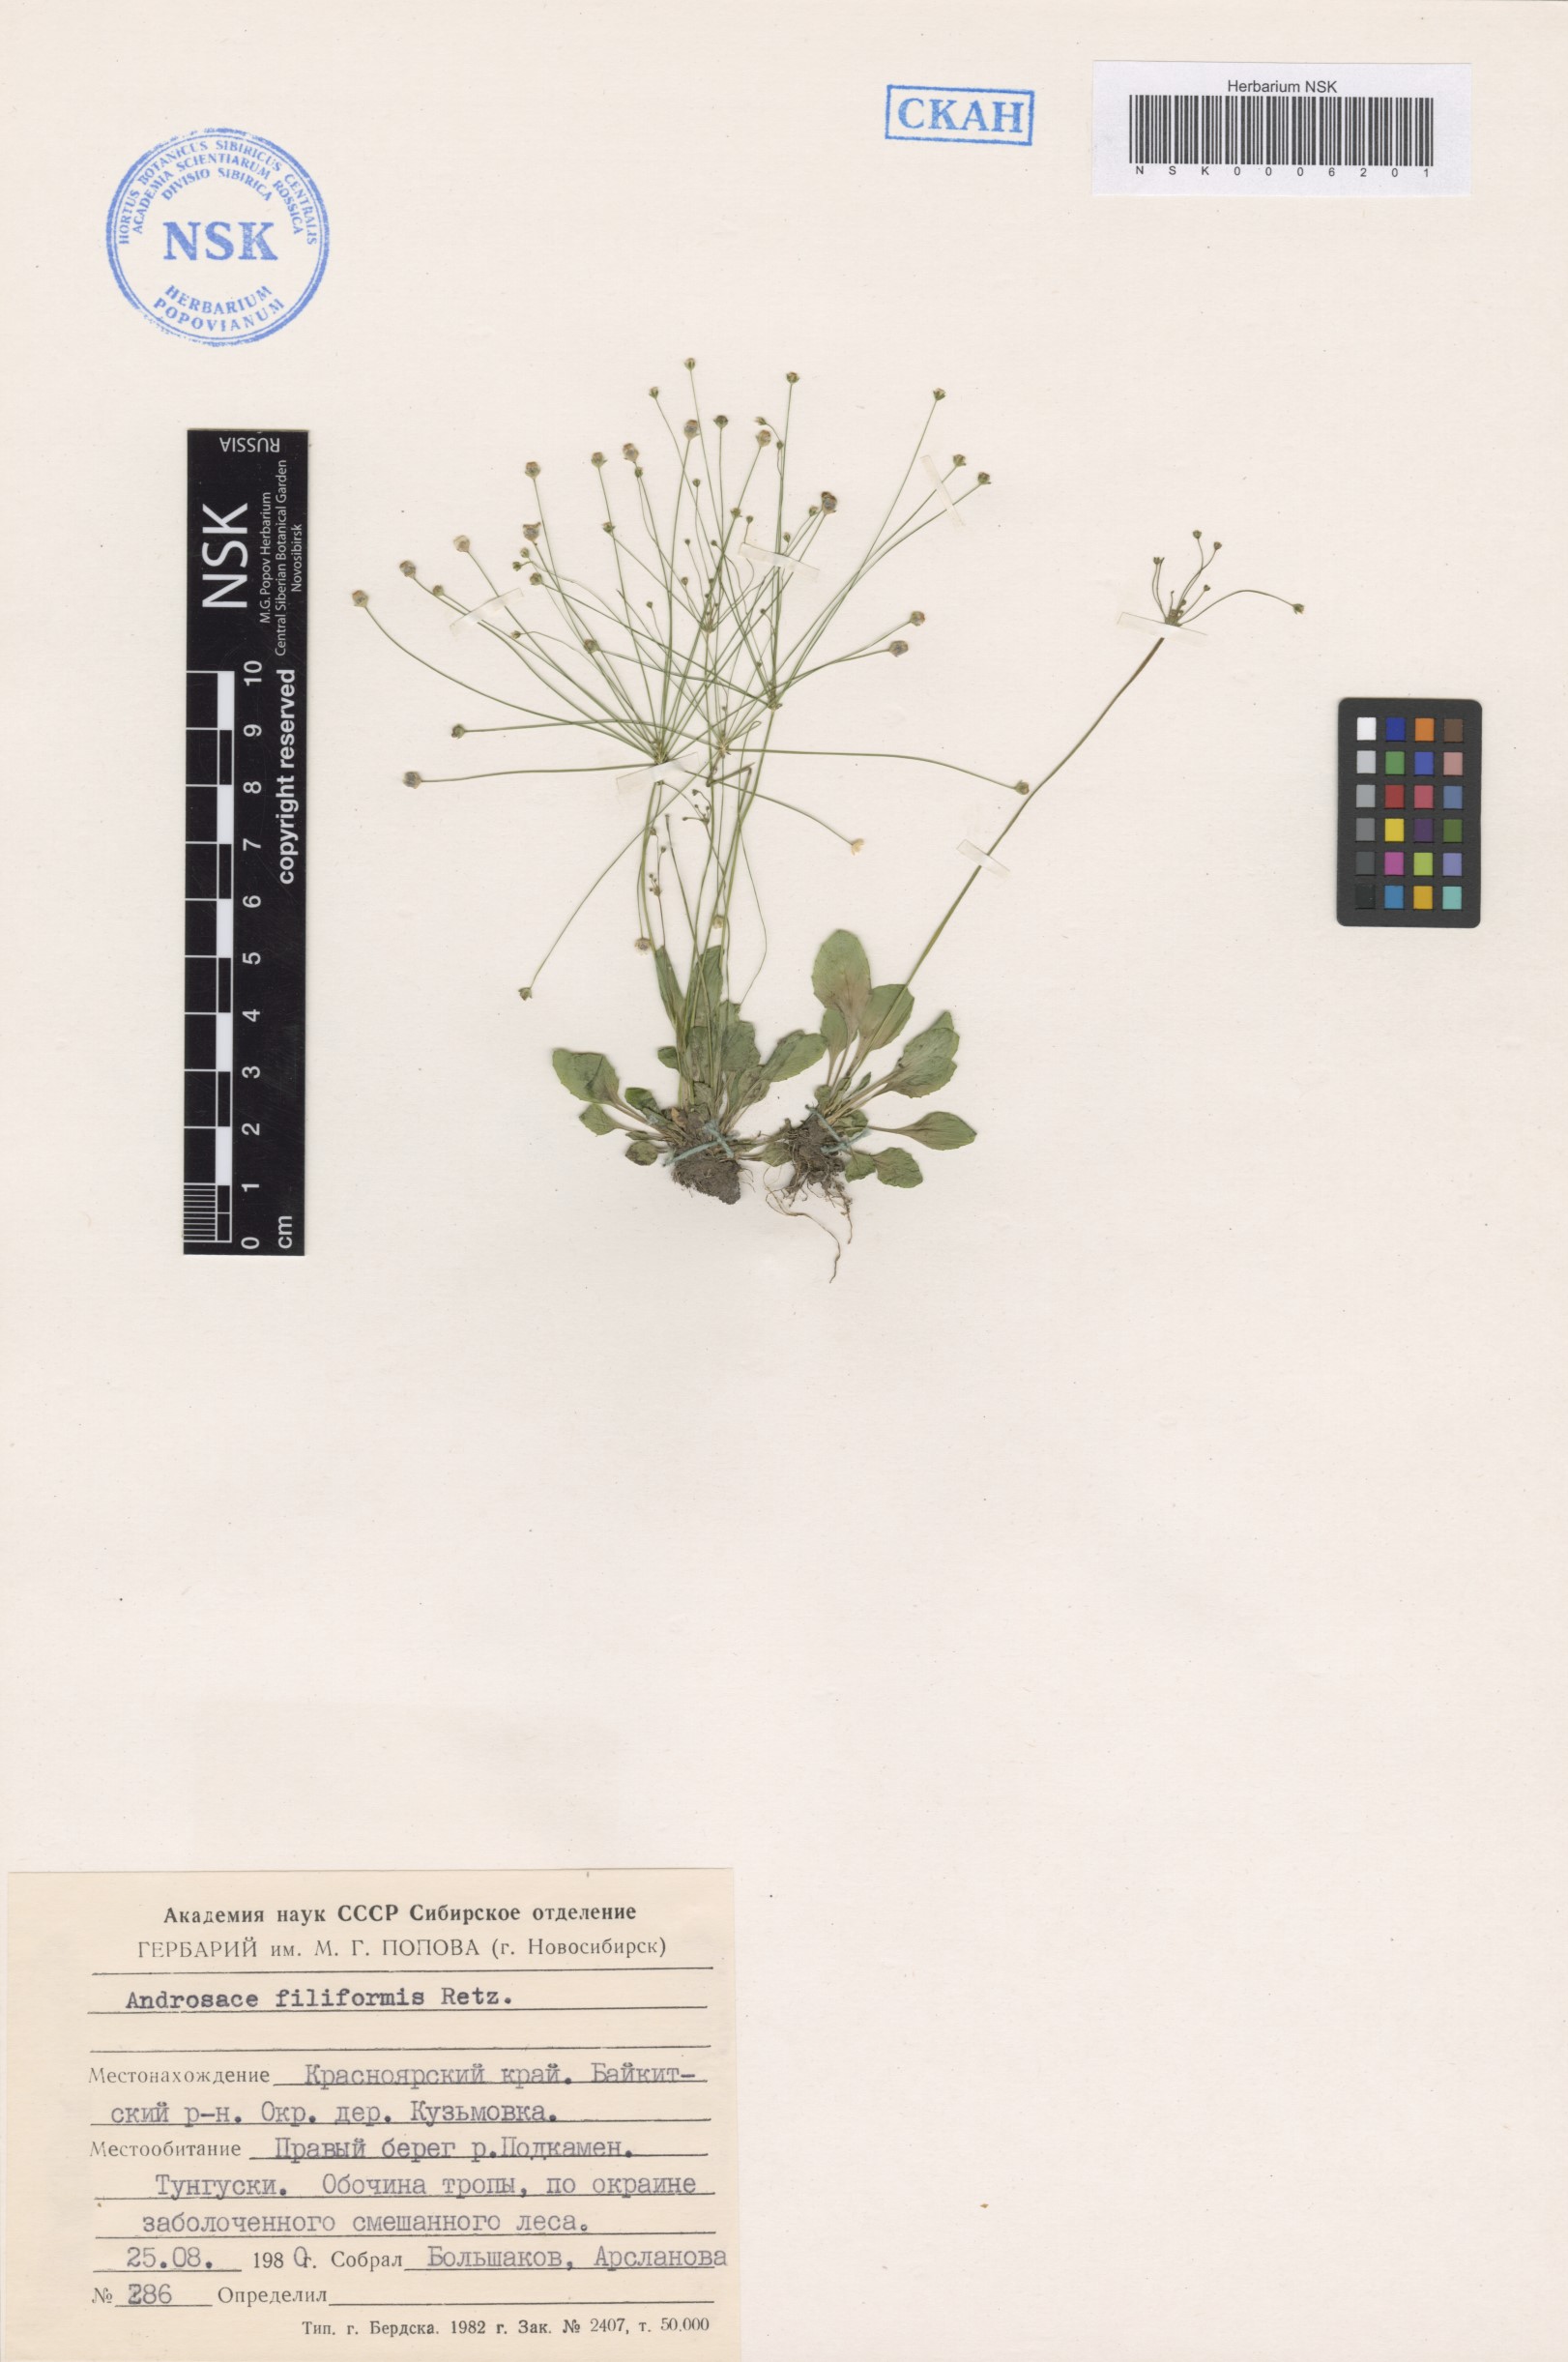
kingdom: Plantae
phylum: Tracheophyta
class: Magnoliopsida
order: Ericales
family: Primulaceae
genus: Androsace
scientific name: Androsace filiformis
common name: Filiform rock jasmine
